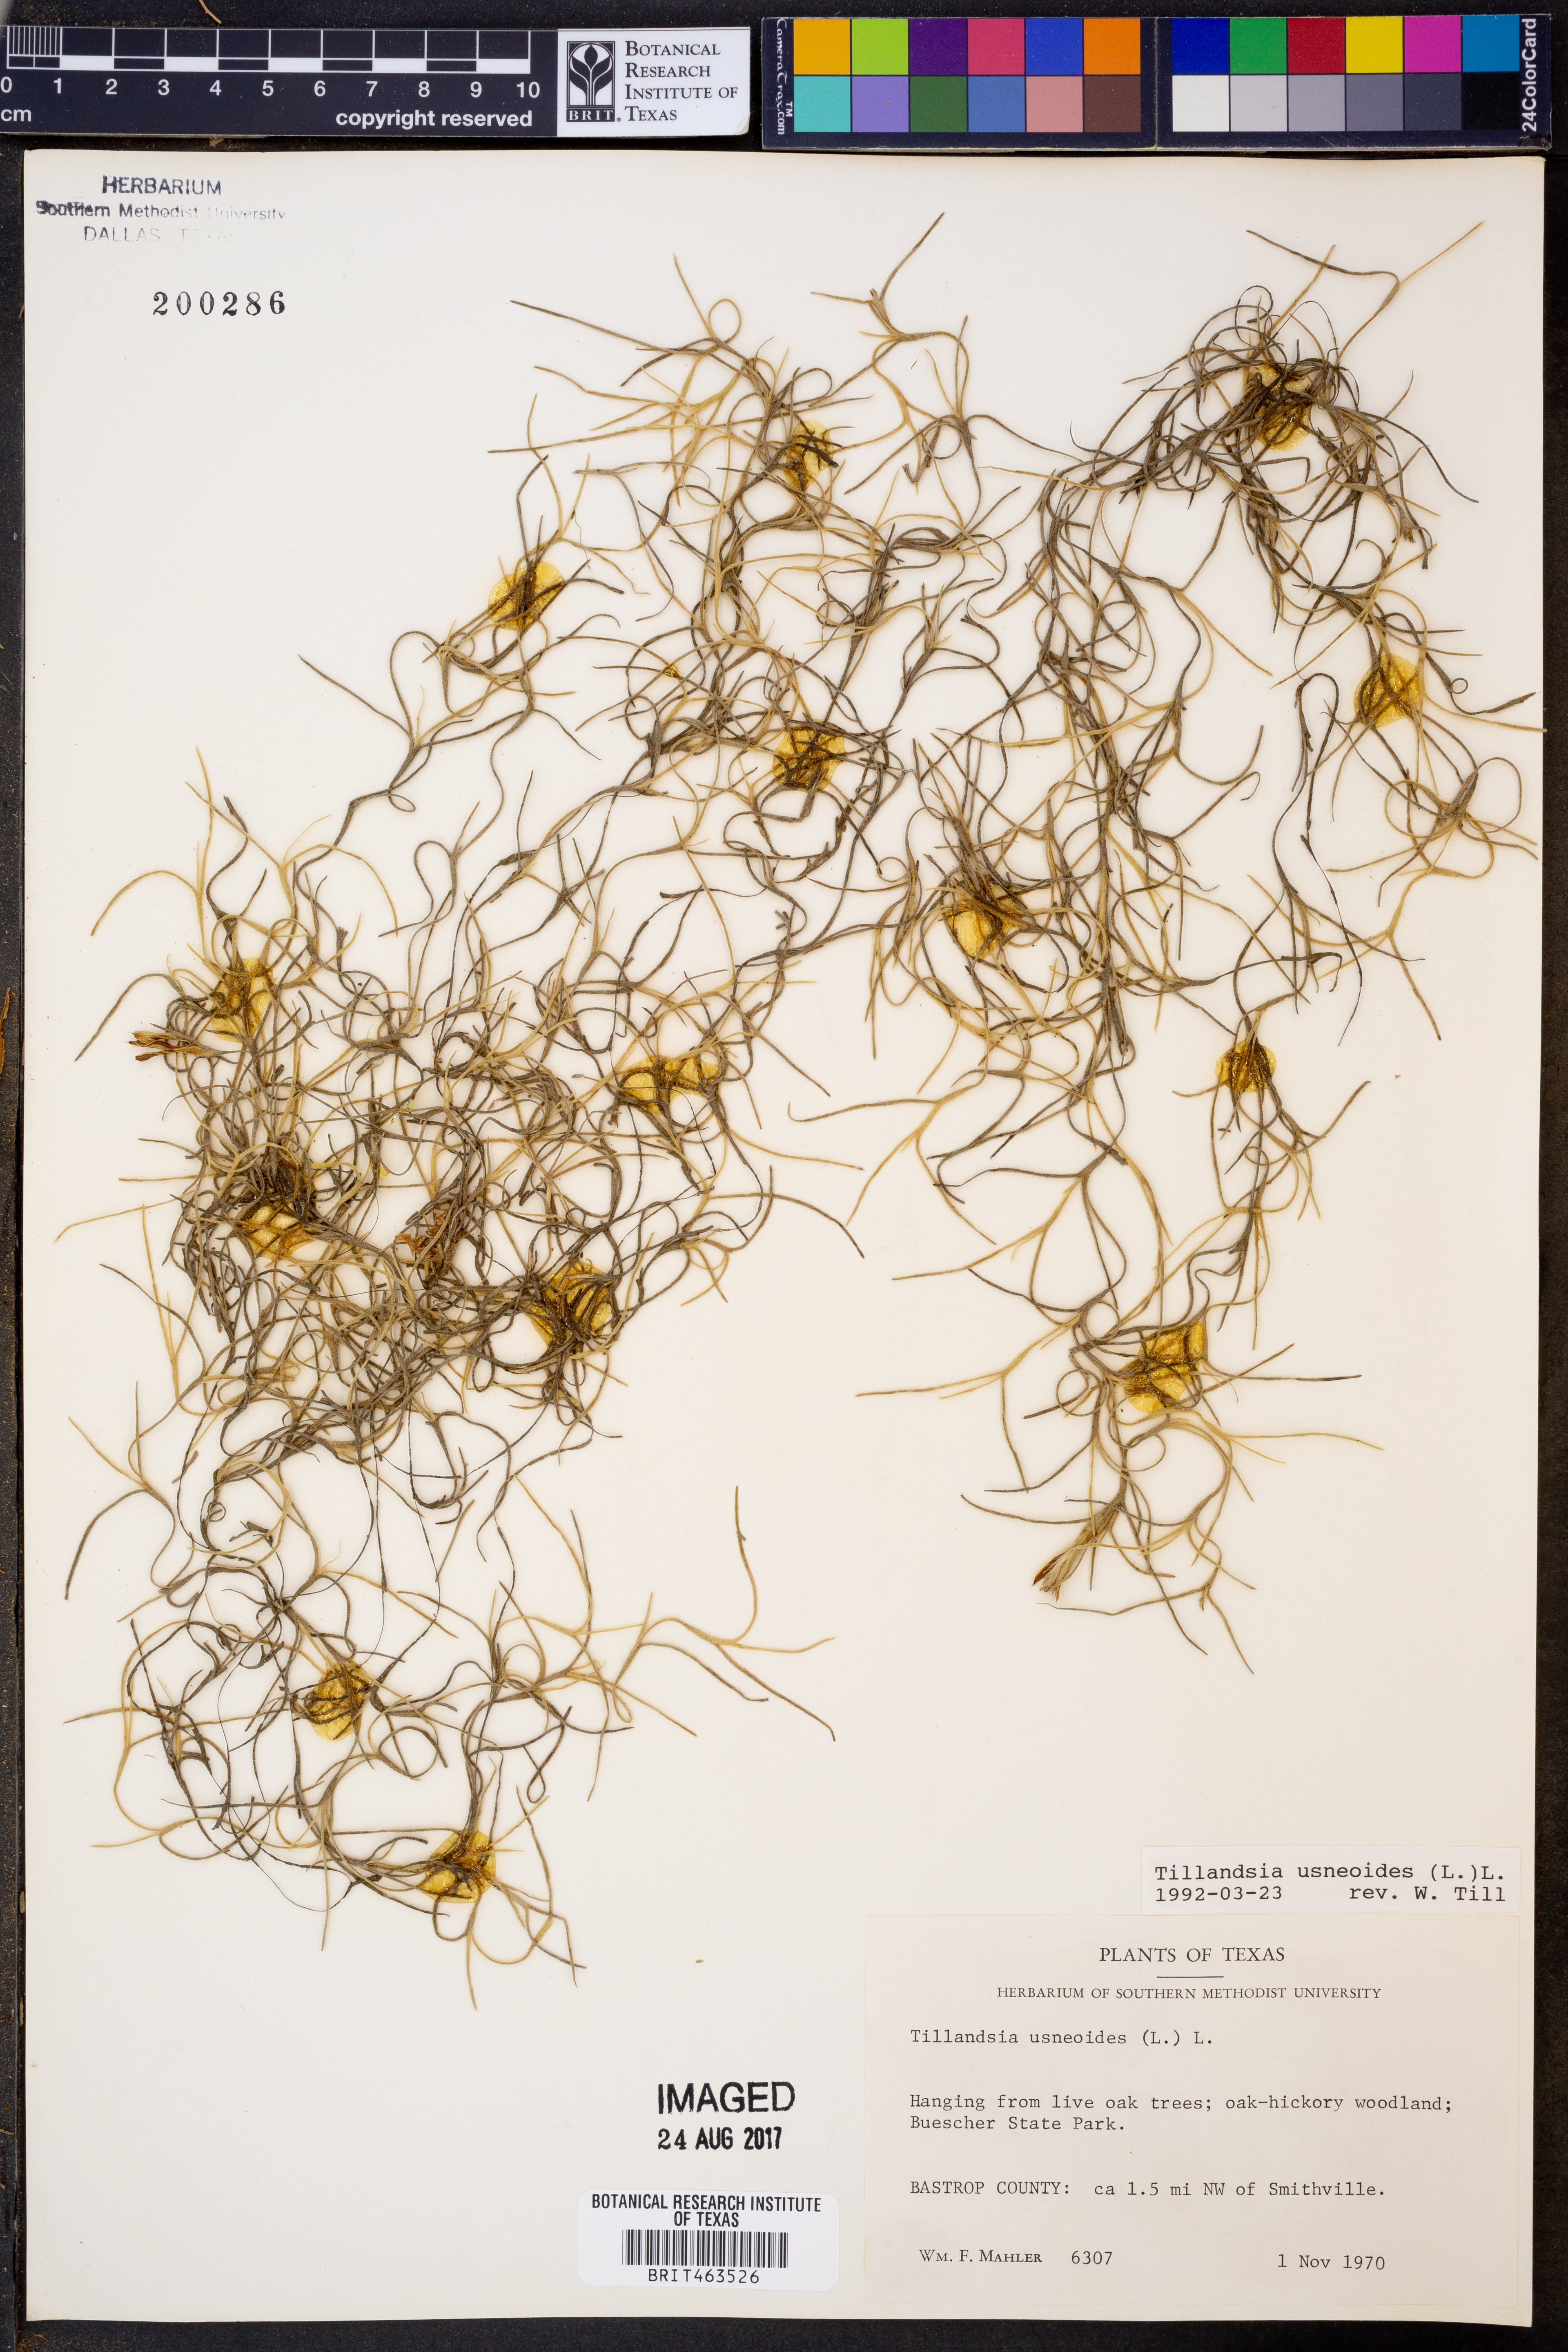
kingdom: Plantae
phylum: Tracheophyta
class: Liliopsida
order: Poales
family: Bromeliaceae
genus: Tillandsia
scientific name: Tillandsia usneoides
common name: Spanish moss
